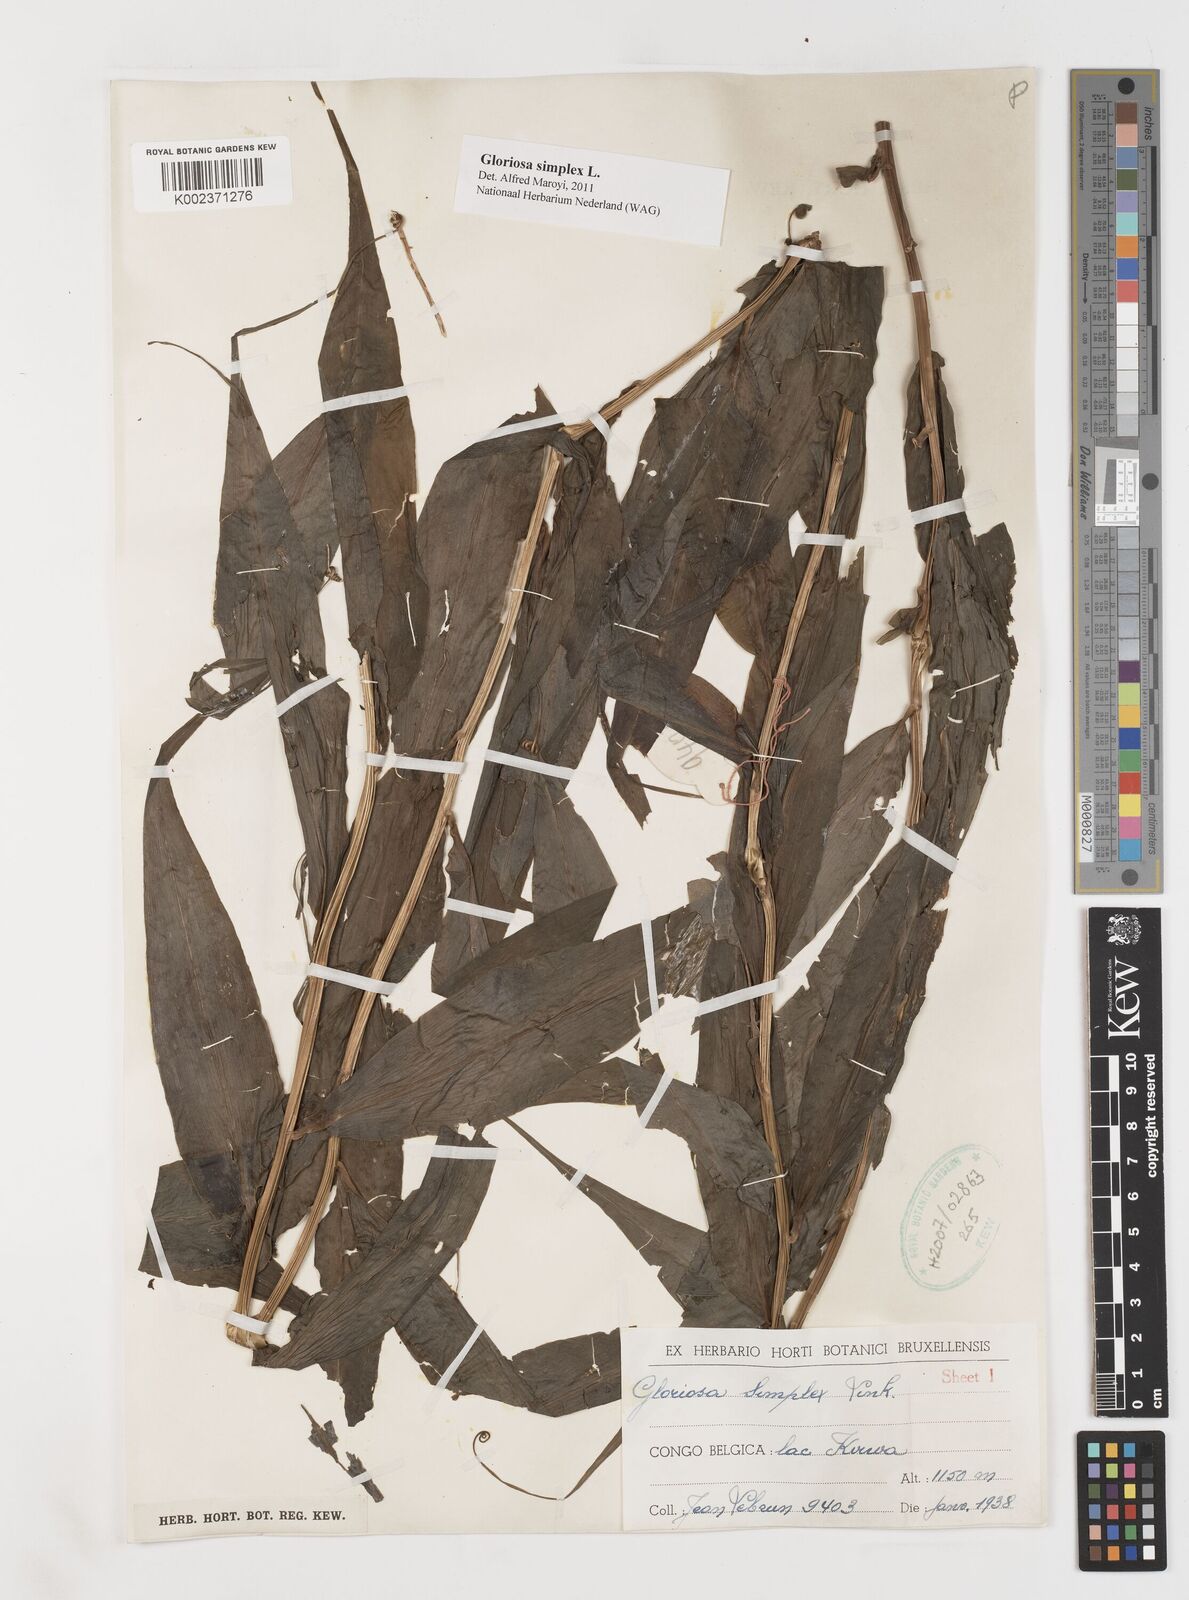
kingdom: Plantae
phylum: Tracheophyta
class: Liliopsida
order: Liliales
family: Colchicaceae
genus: Gloriosa
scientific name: Gloriosa simplex
